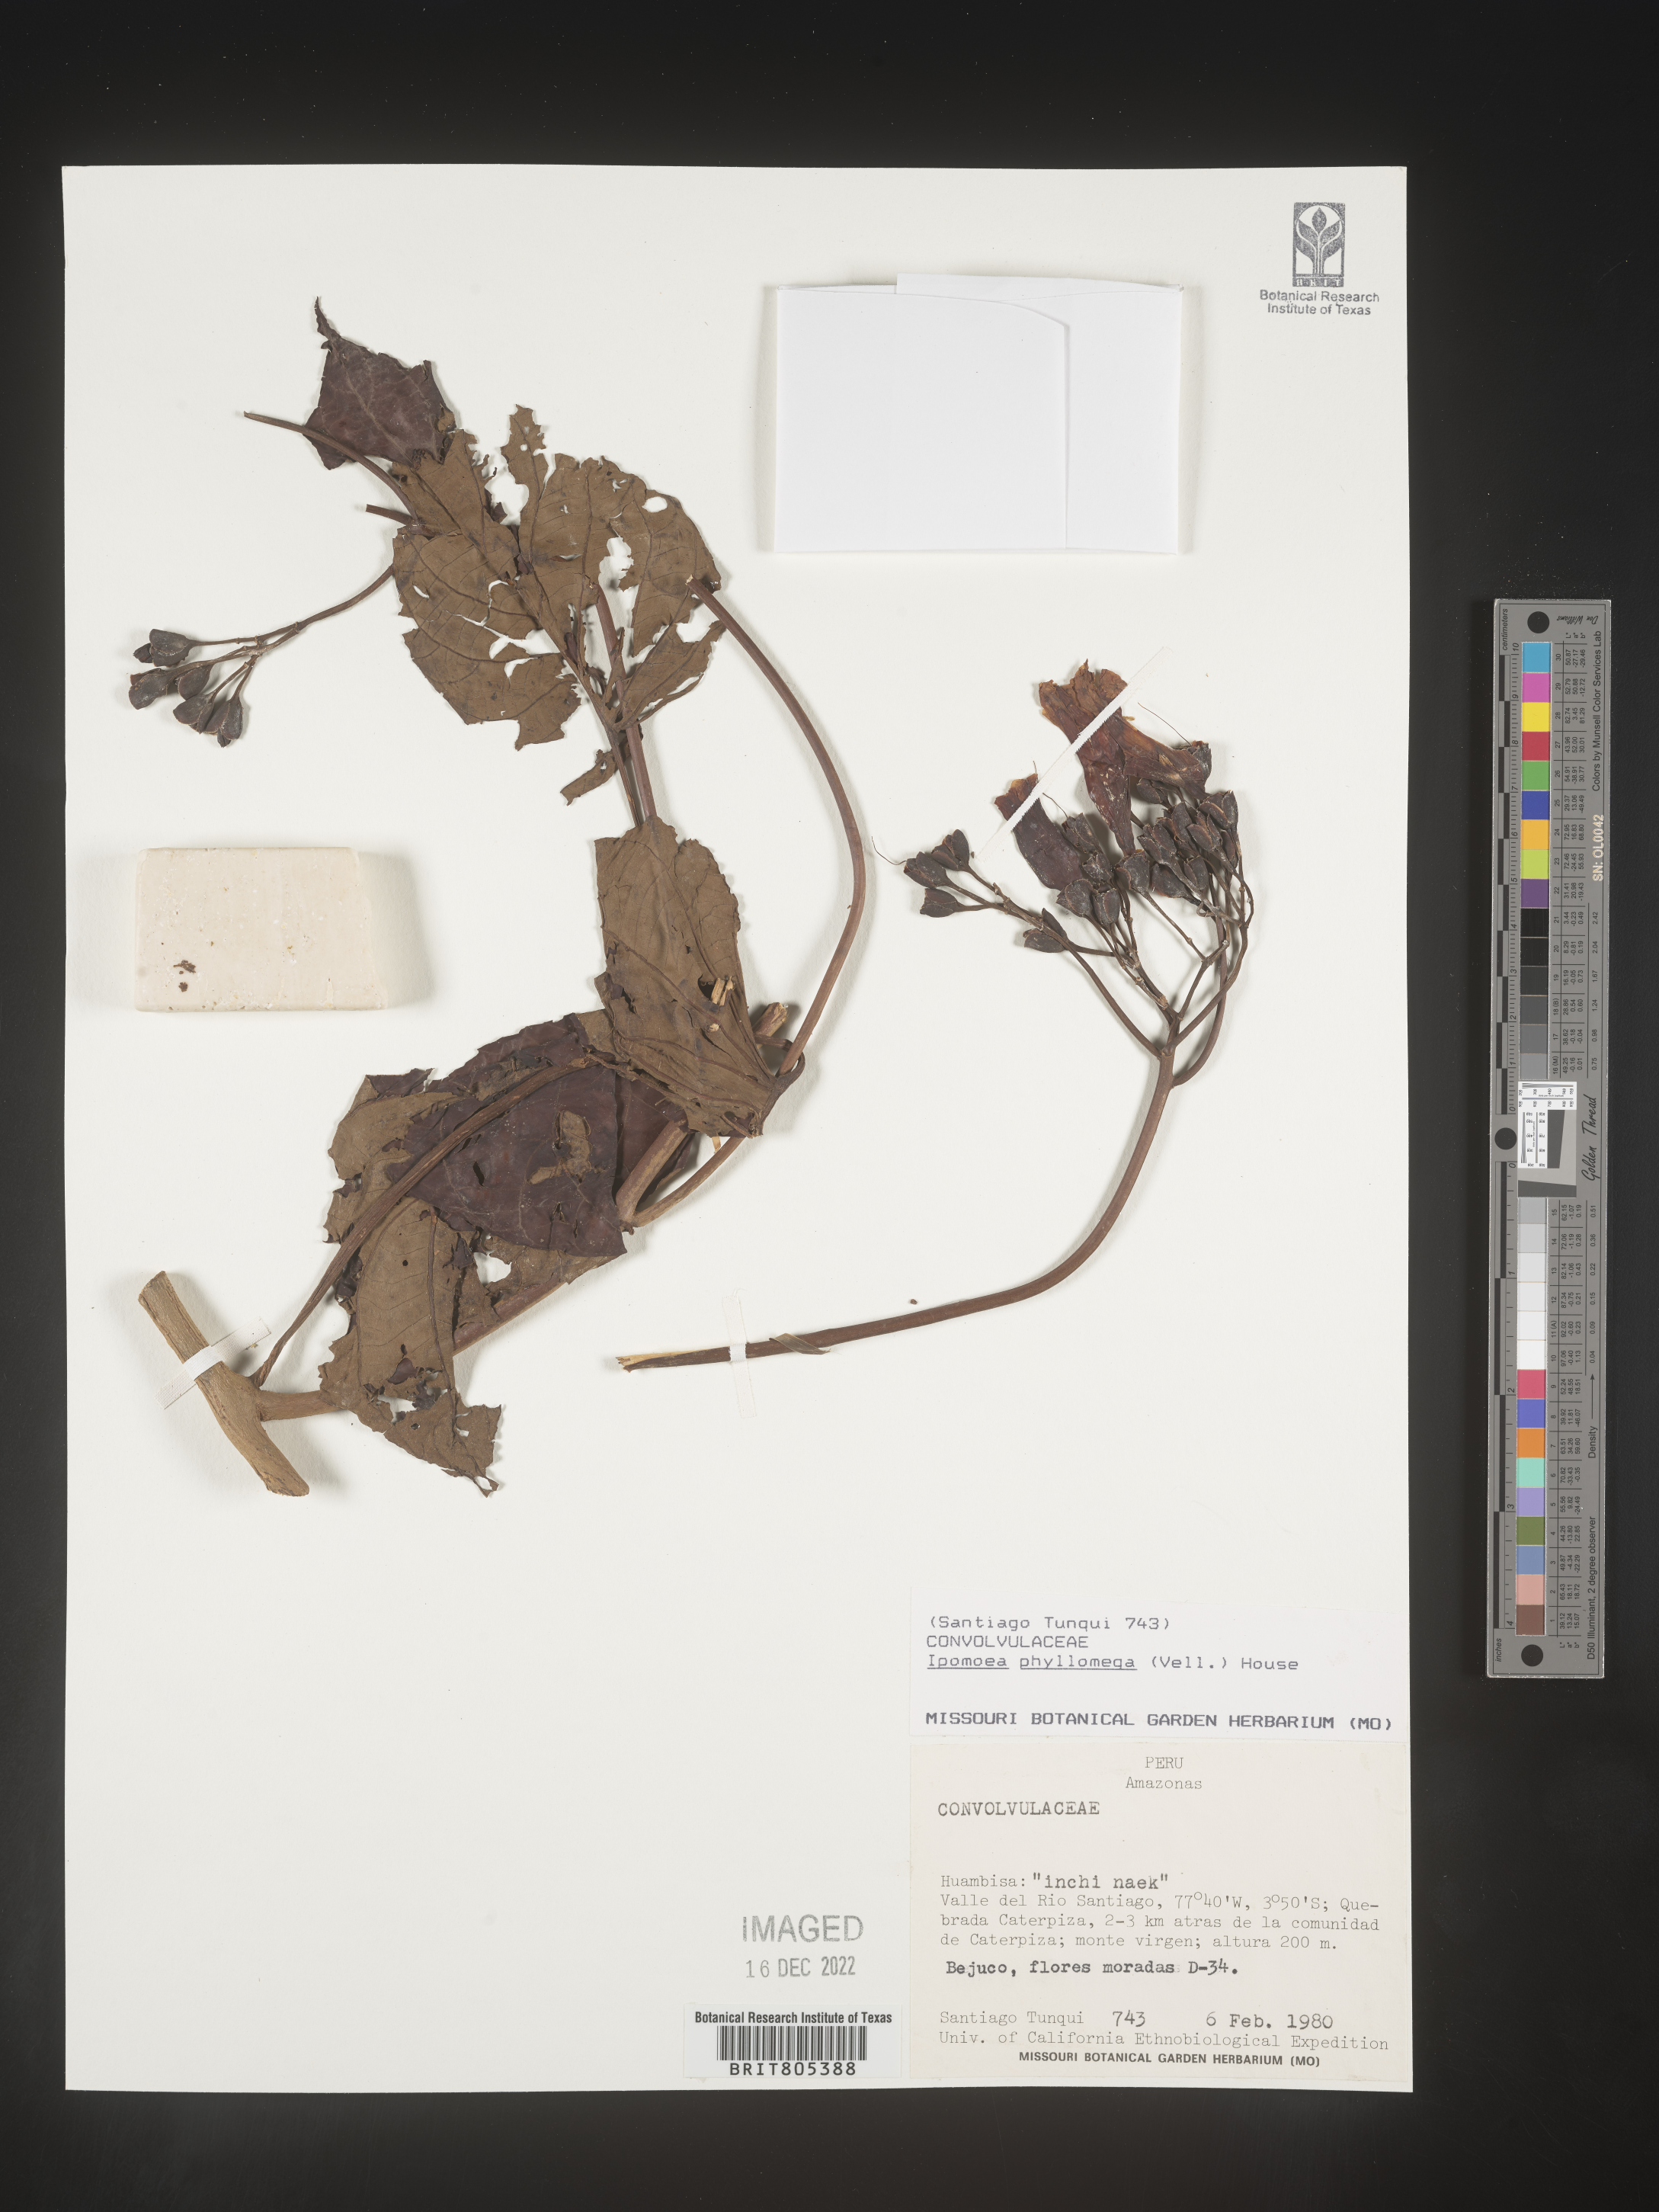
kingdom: Plantae
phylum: Tracheophyta
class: Magnoliopsida
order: Solanales
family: Convolvulaceae
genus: Ipomoea
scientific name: Ipomoea
